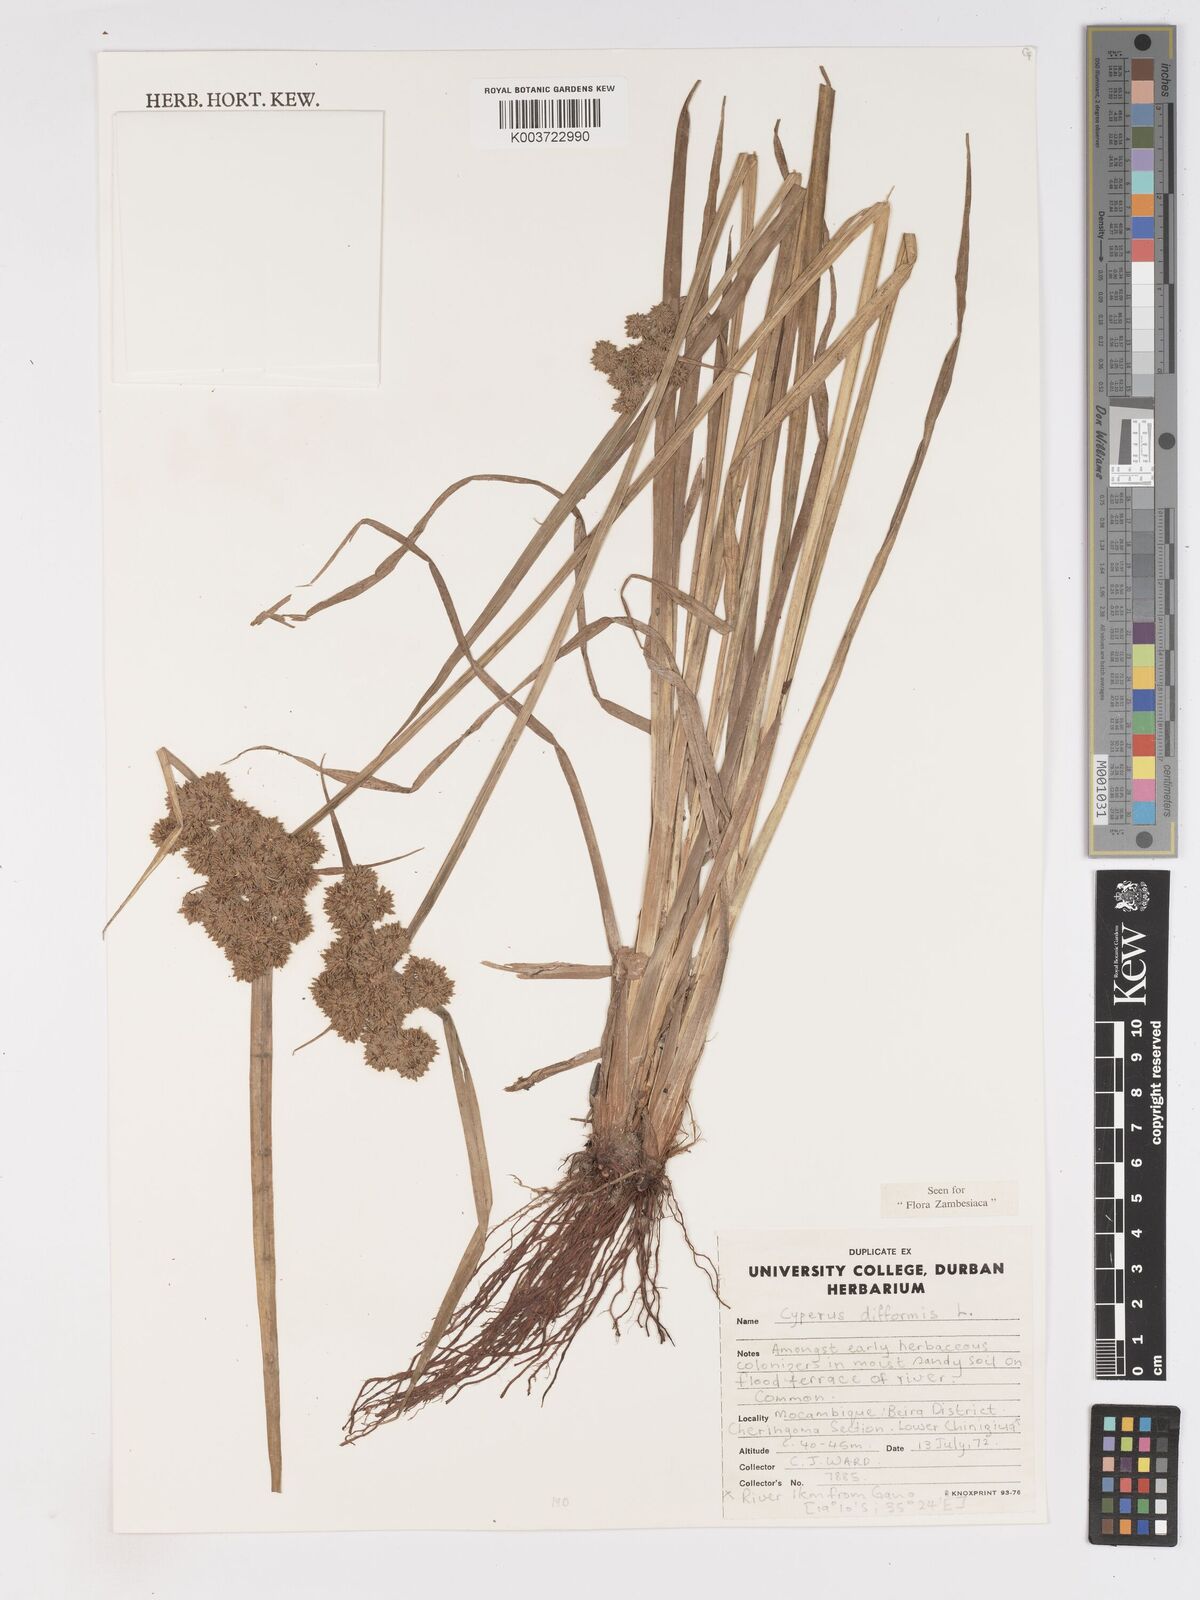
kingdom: Plantae
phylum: Tracheophyta
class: Liliopsida
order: Poales
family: Cyperaceae
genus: Cyperus
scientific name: Cyperus difformis
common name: Variable flatsedge
